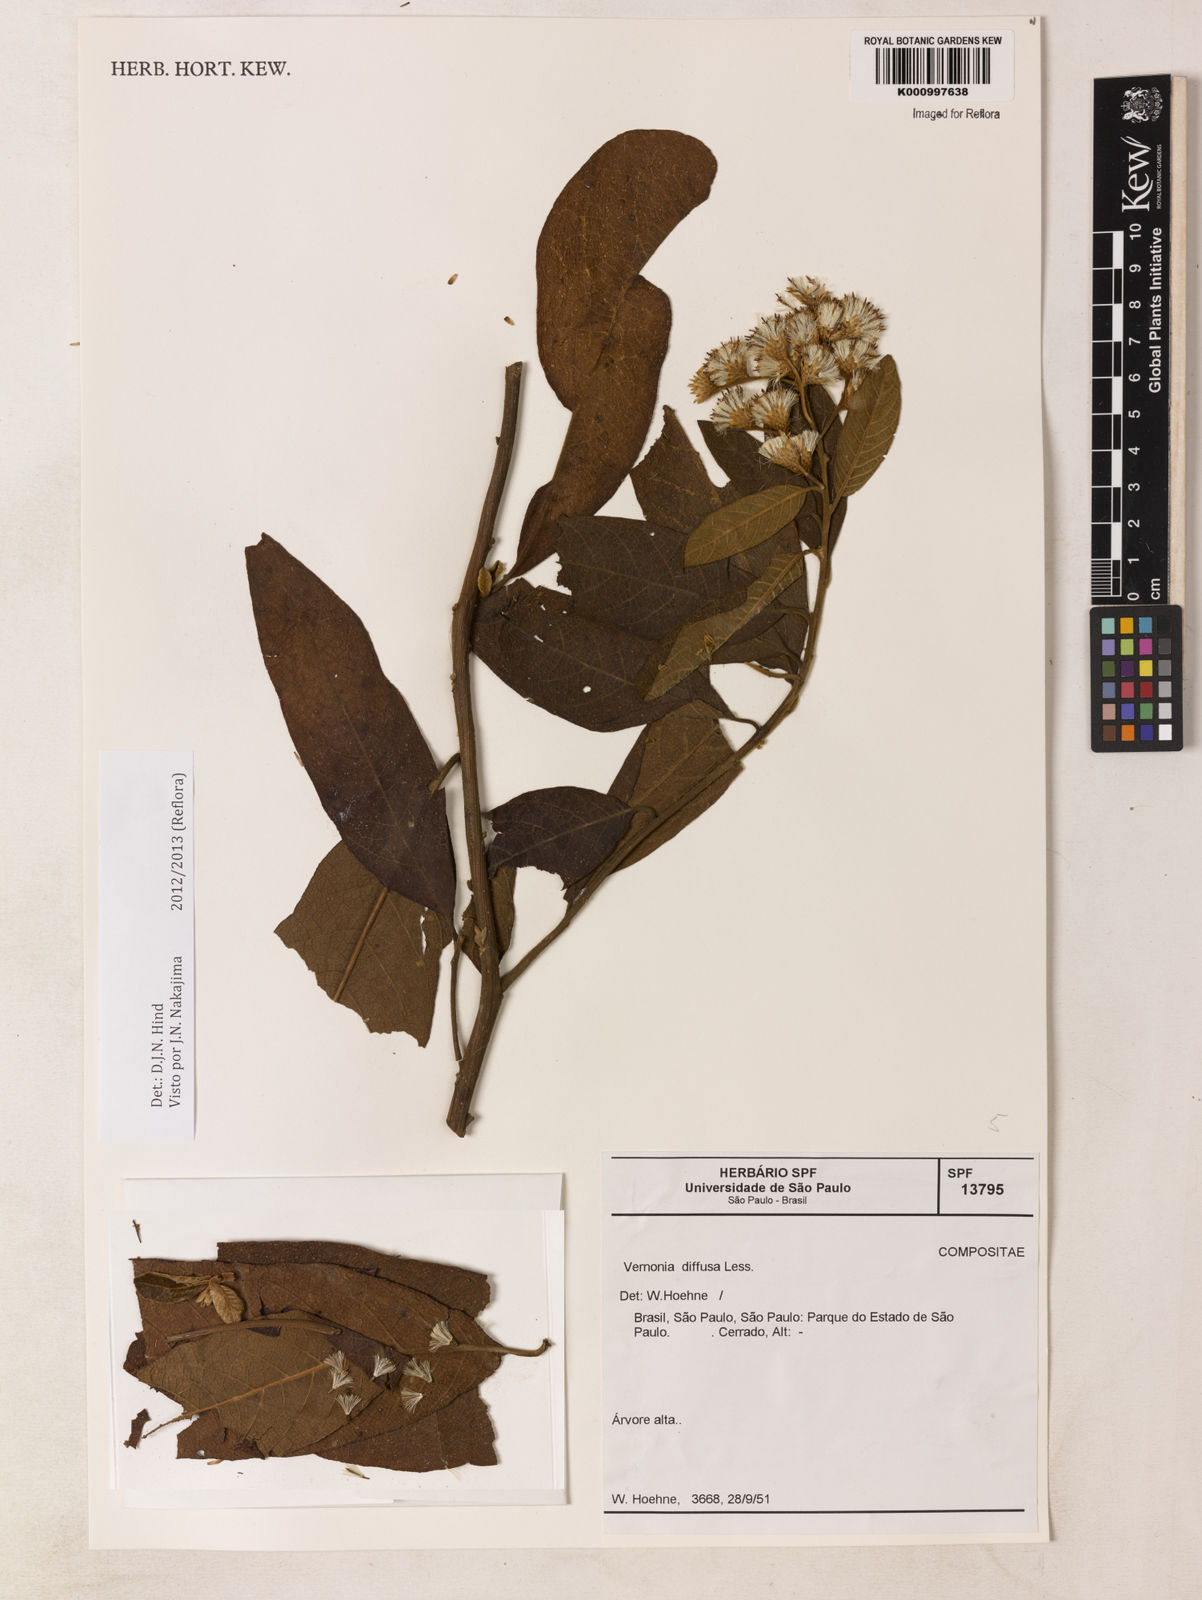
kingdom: Plantae
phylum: Tracheophyta
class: Magnoliopsida
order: Asterales
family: Asteraceae
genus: Vernonanthura
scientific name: Vernonanthura divaricata
